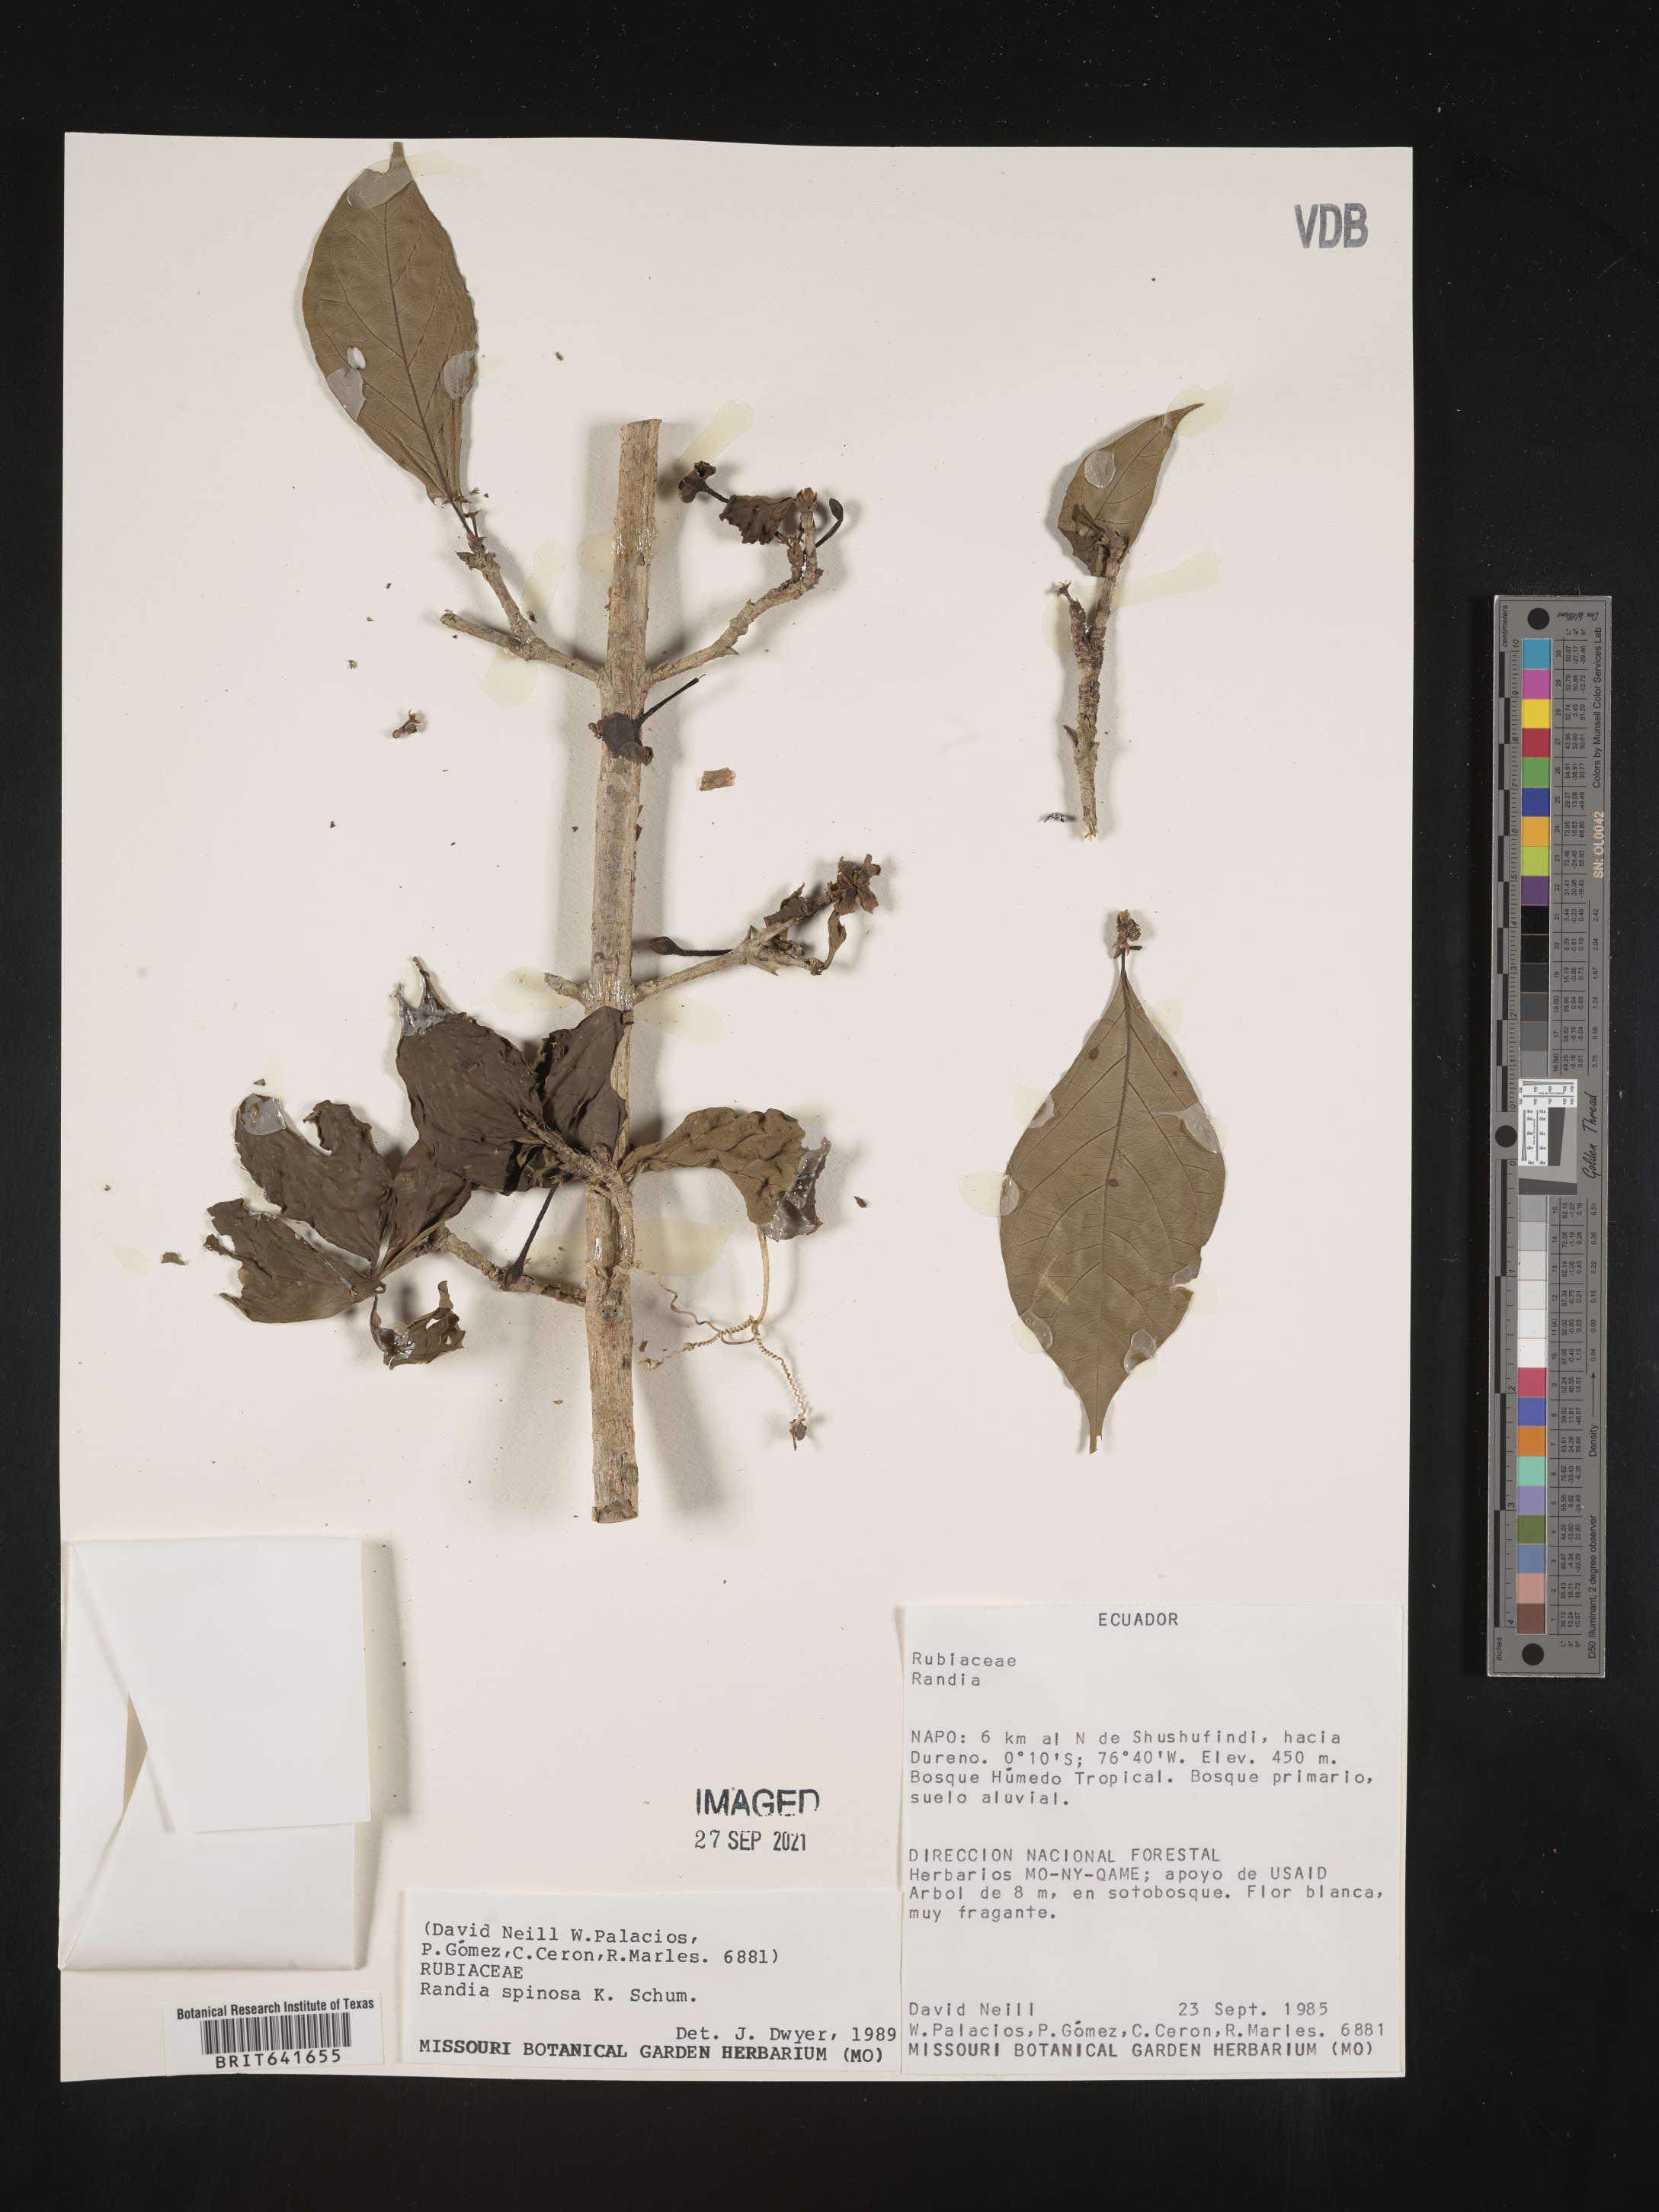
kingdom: Plantae
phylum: Tracheophyta
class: Magnoliopsida
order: Gentianales
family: Rubiaceae
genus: Randia
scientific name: Randia
